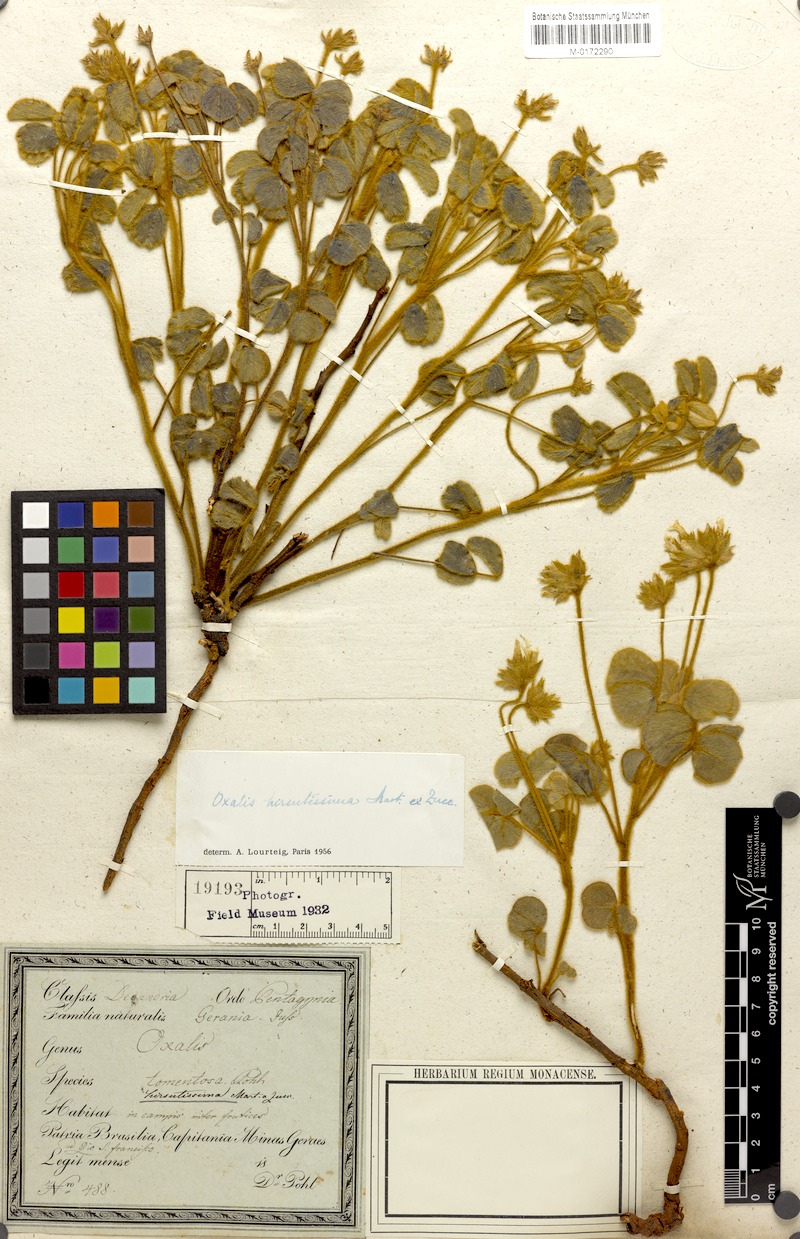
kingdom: Plantae
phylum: Tracheophyta
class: Magnoliopsida
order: Oxalidales
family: Oxalidaceae
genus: Oxalis
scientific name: Oxalis hirsutissima
